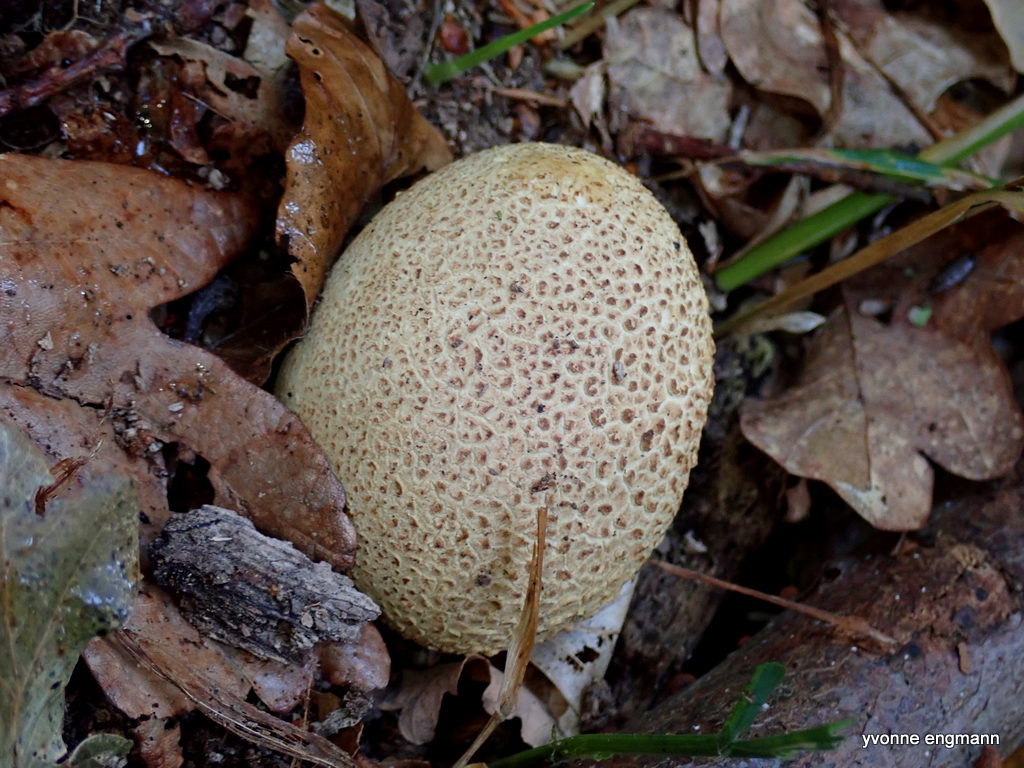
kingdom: Fungi
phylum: Basidiomycota
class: Agaricomycetes
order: Boletales
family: Sclerodermataceae
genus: Scleroderma
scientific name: Scleroderma citrinum
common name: almindelig bruskbold
